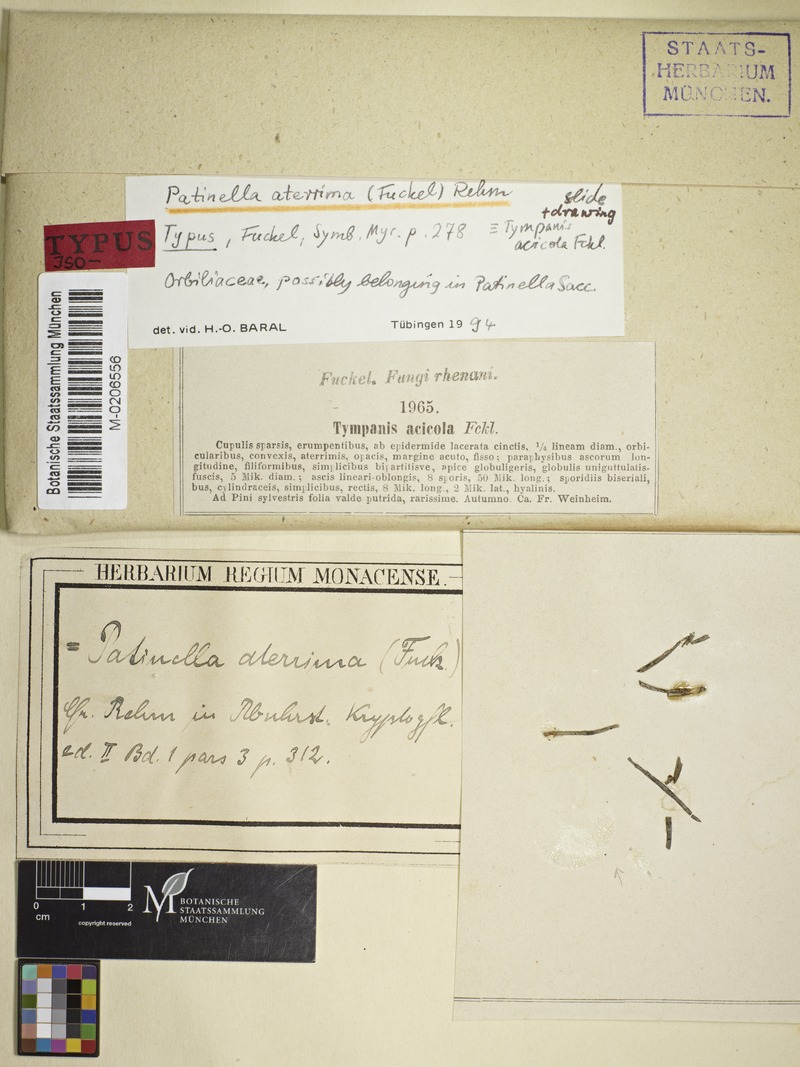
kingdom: Fungi
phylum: Ascomycota
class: Leotiomycetes
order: Helotiales
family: Dermateaceae
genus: Pezicula
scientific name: Pezicula aterrima
